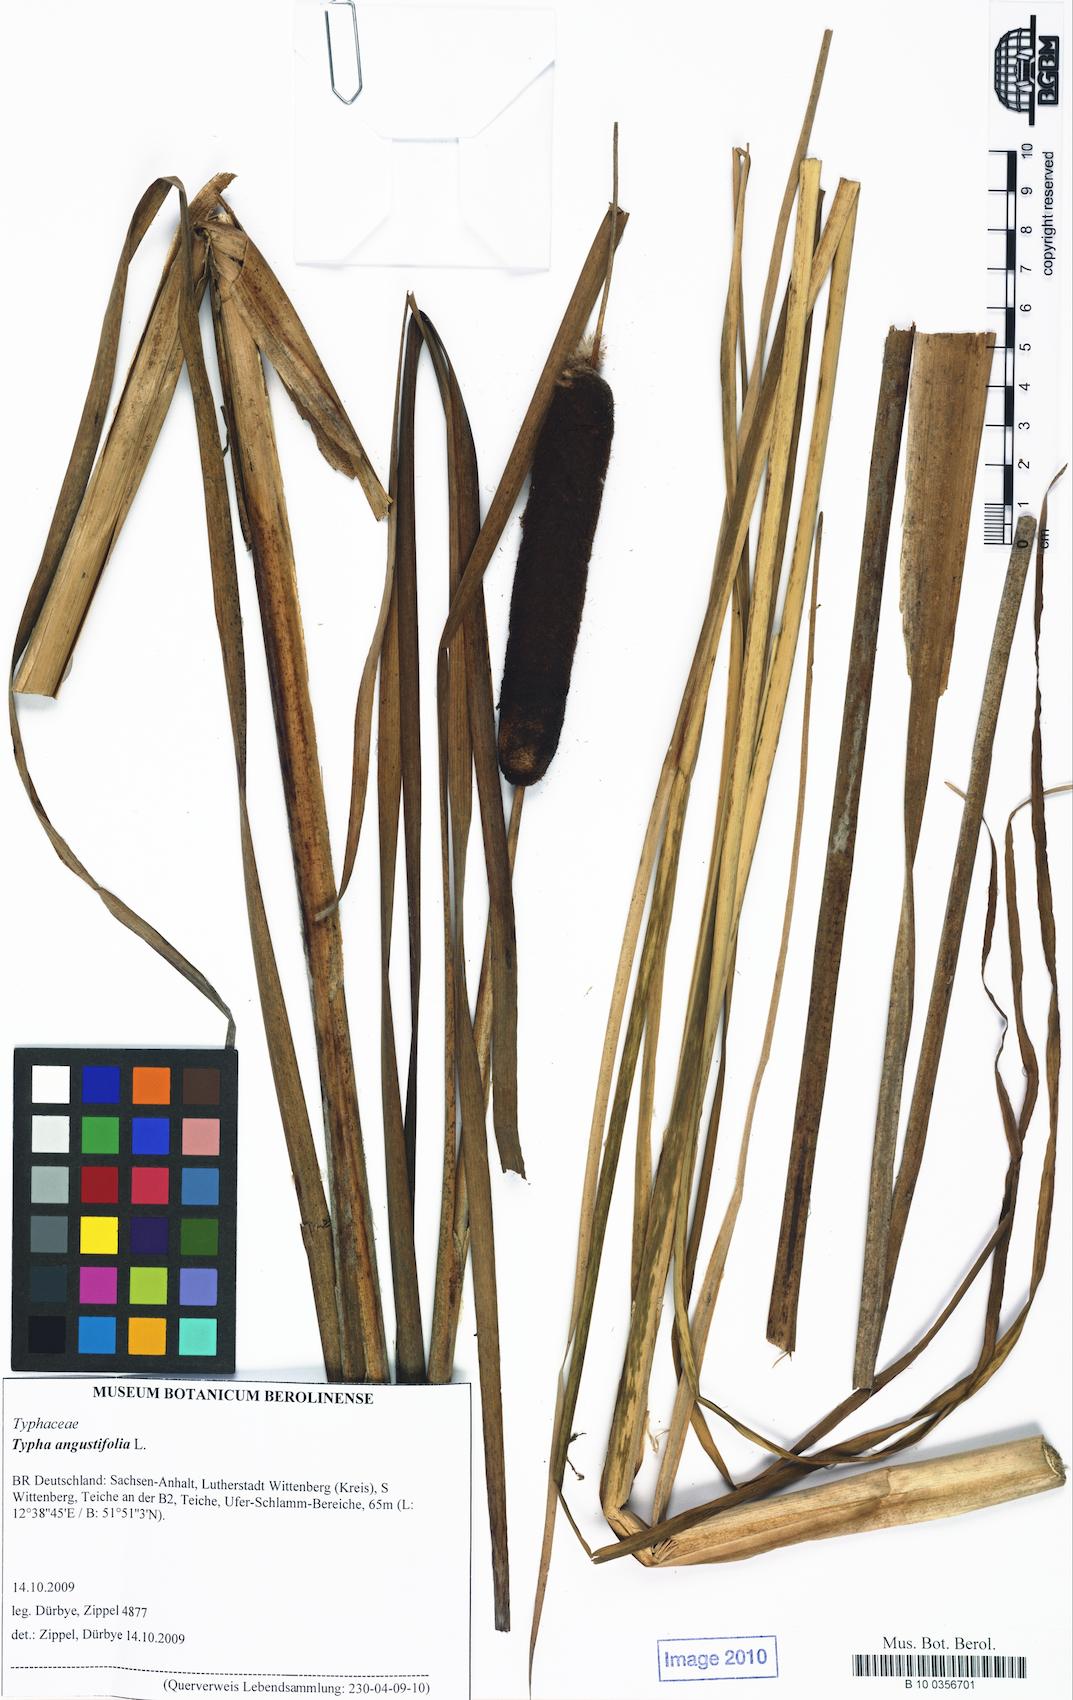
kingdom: Plantae
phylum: Tracheophyta
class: Liliopsida
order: Poales
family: Typhaceae
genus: Typha
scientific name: Typha angustifolia
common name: Lesser bulrush
